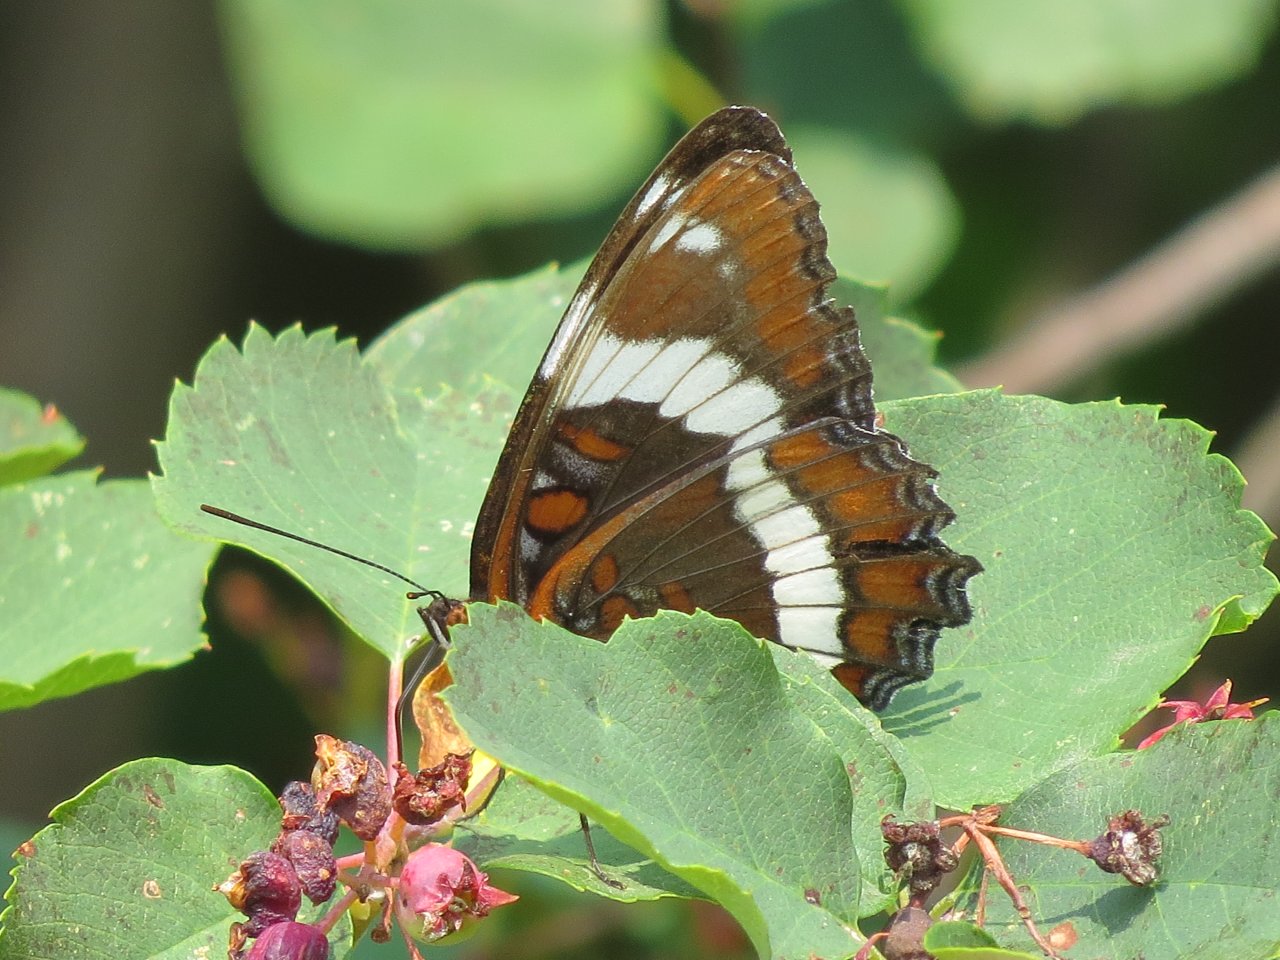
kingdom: Animalia
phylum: Arthropoda
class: Insecta
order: Lepidoptera
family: Nymphalidae
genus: Limenitis
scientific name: Limenitis arthemis
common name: Red-spotted Admiral
